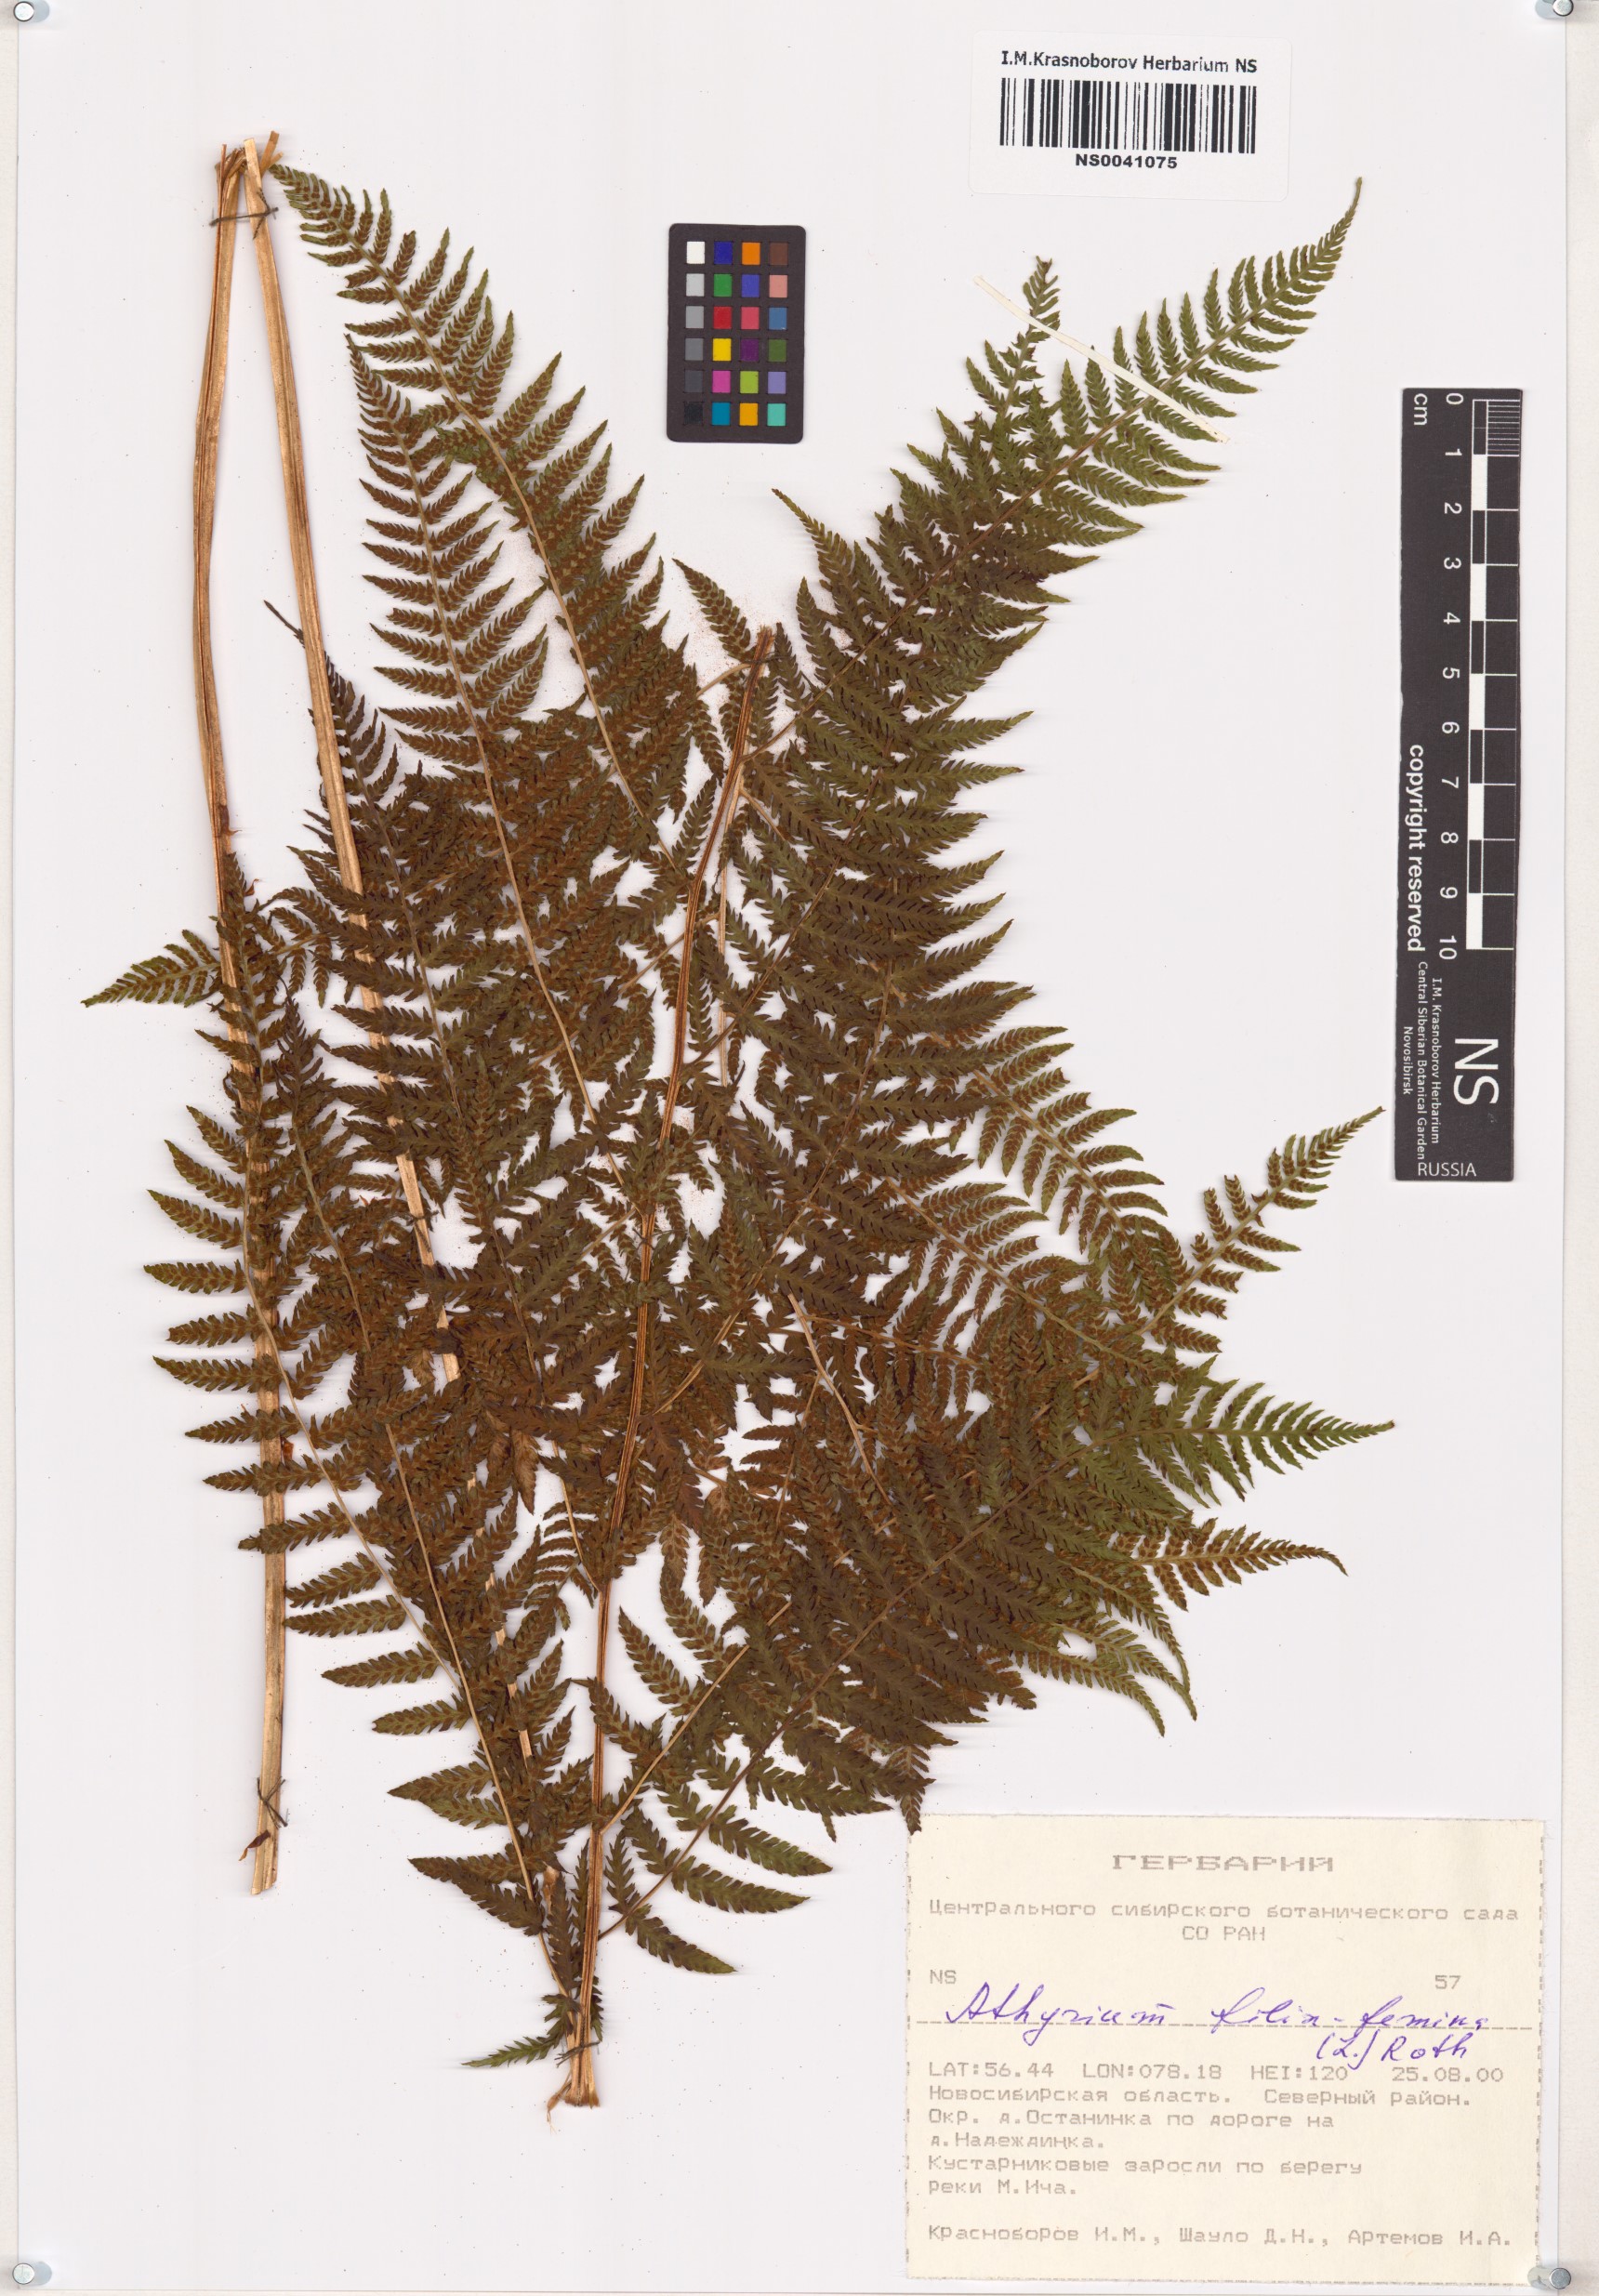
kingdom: Plantae
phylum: Tracheophyta
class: Polypodiopsida
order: Polypodiales
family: Athyriaceae
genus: Athyrium
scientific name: Athyrium filix-femina
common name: Lady fern
